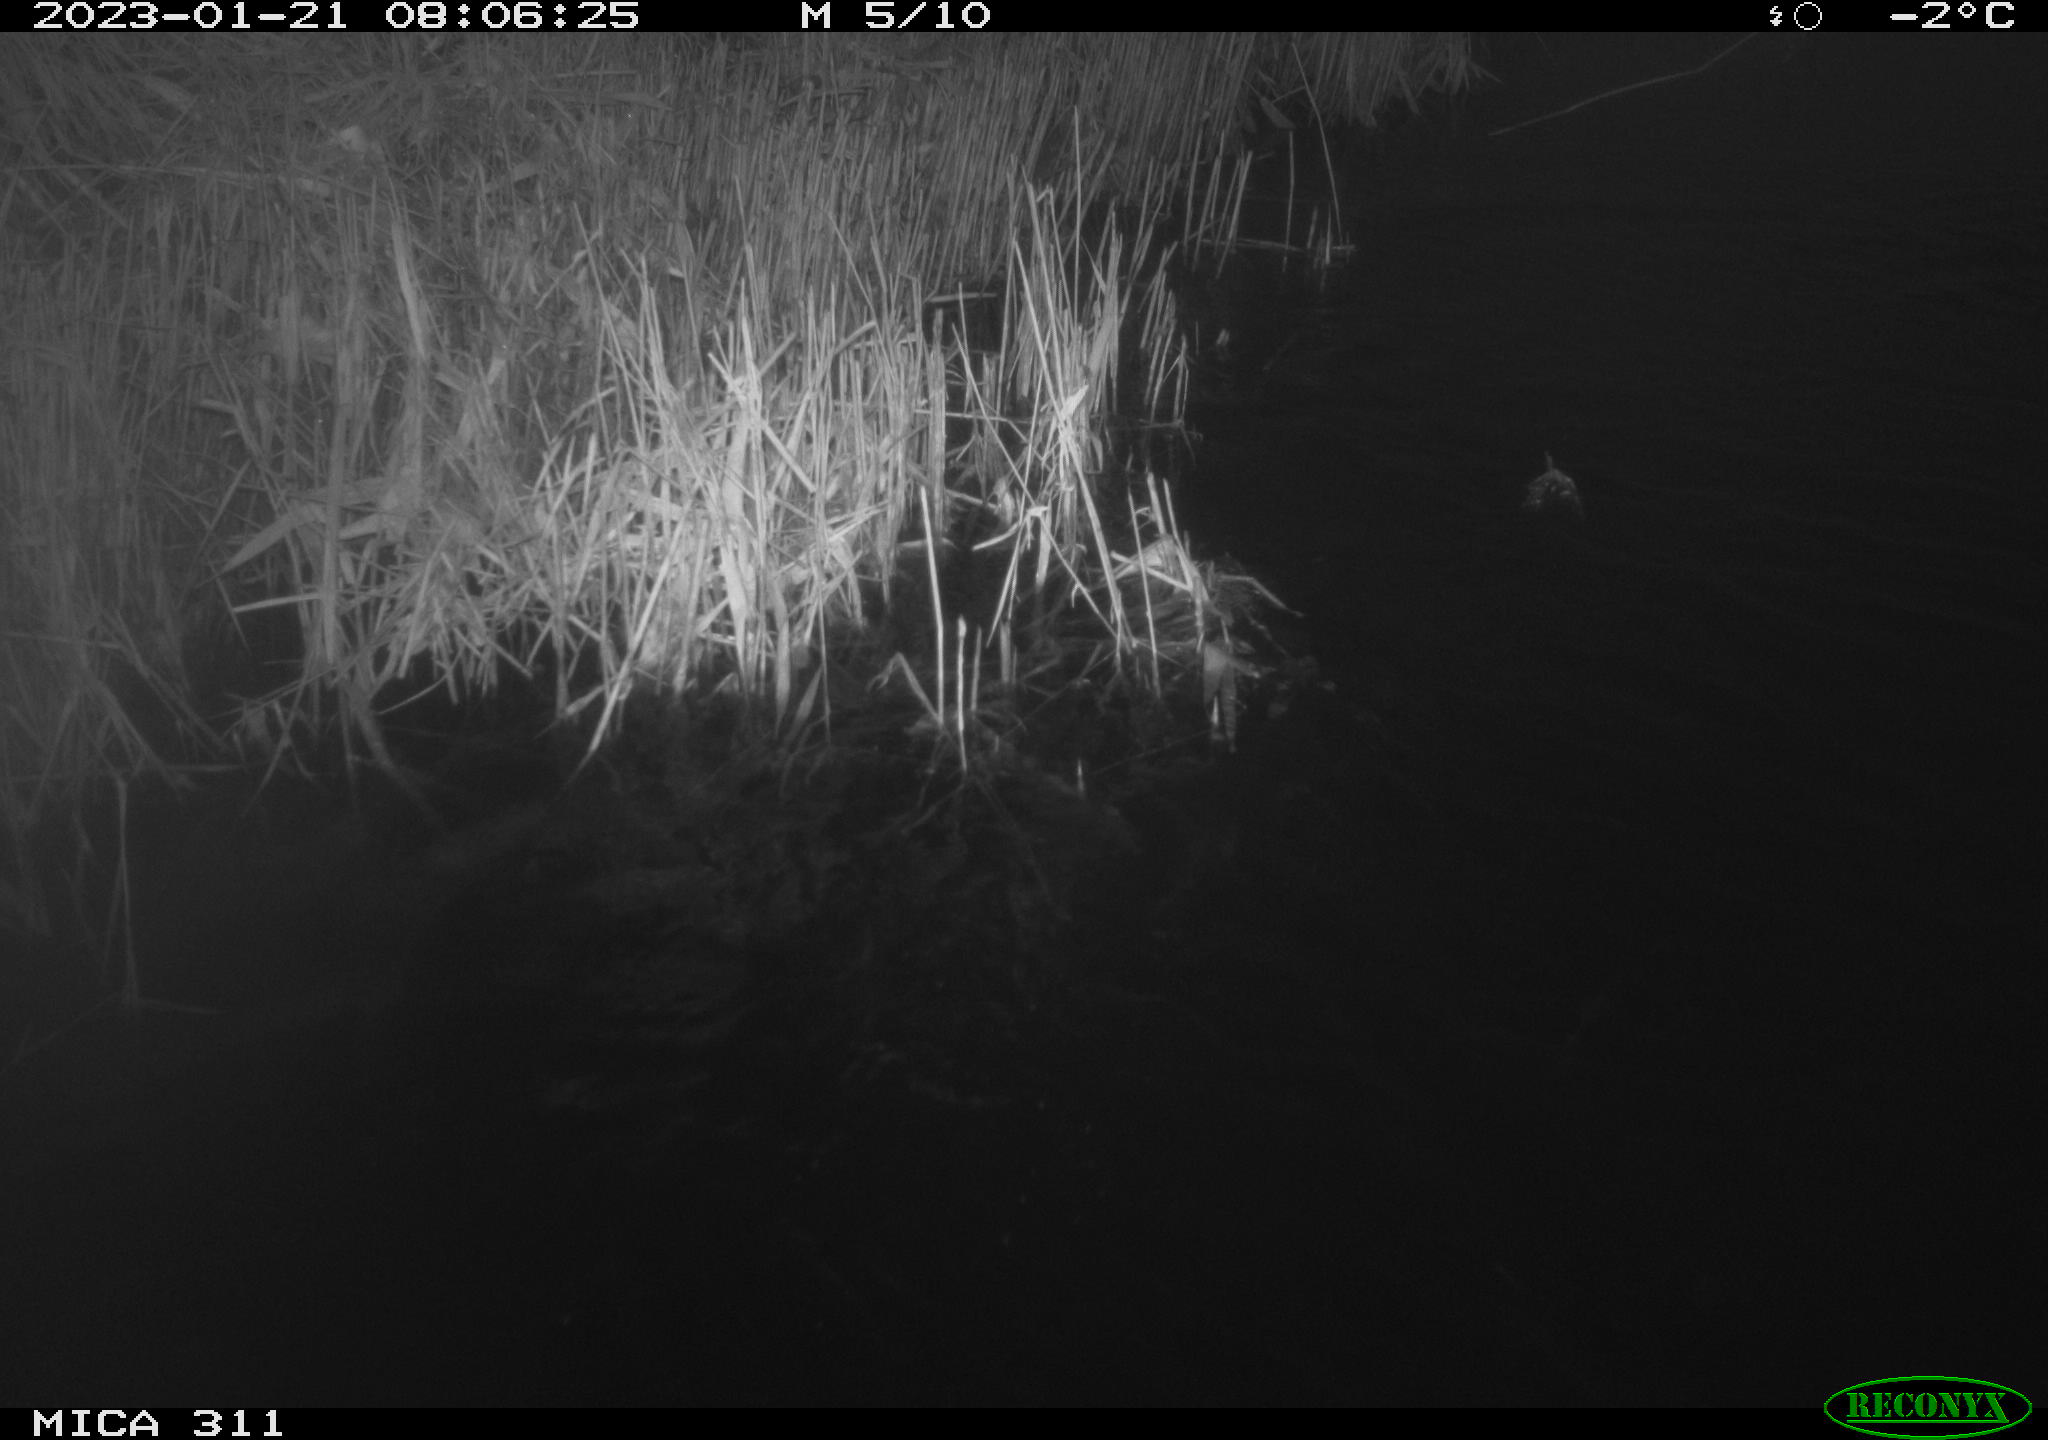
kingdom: Animalia
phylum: Chordata
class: Aves
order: Gruiformes
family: Rallidae
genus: Gallinula
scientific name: Gallinula chloropus
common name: Common moorhen
